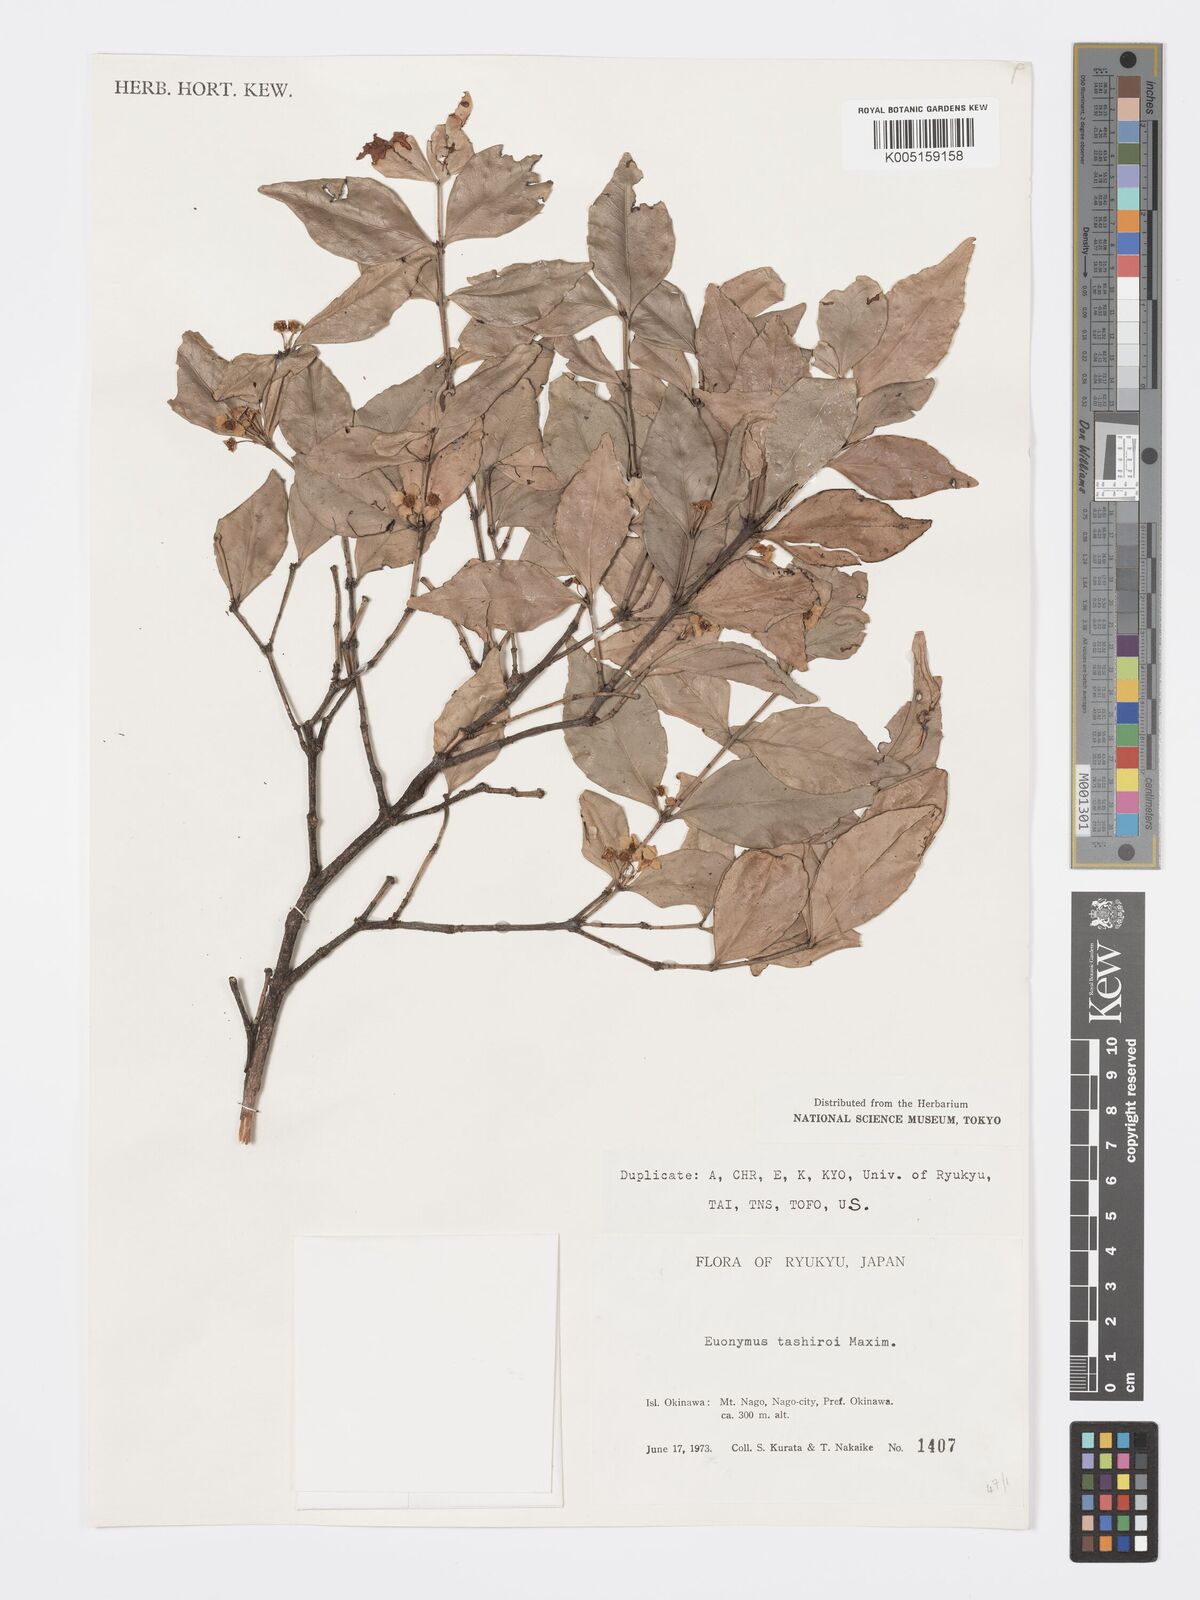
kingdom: Plantae
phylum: Tracheophyta
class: Magnoliopsida
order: Celastrales
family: Celastraceae
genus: Euonymus
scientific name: Euonymus tashiroi
